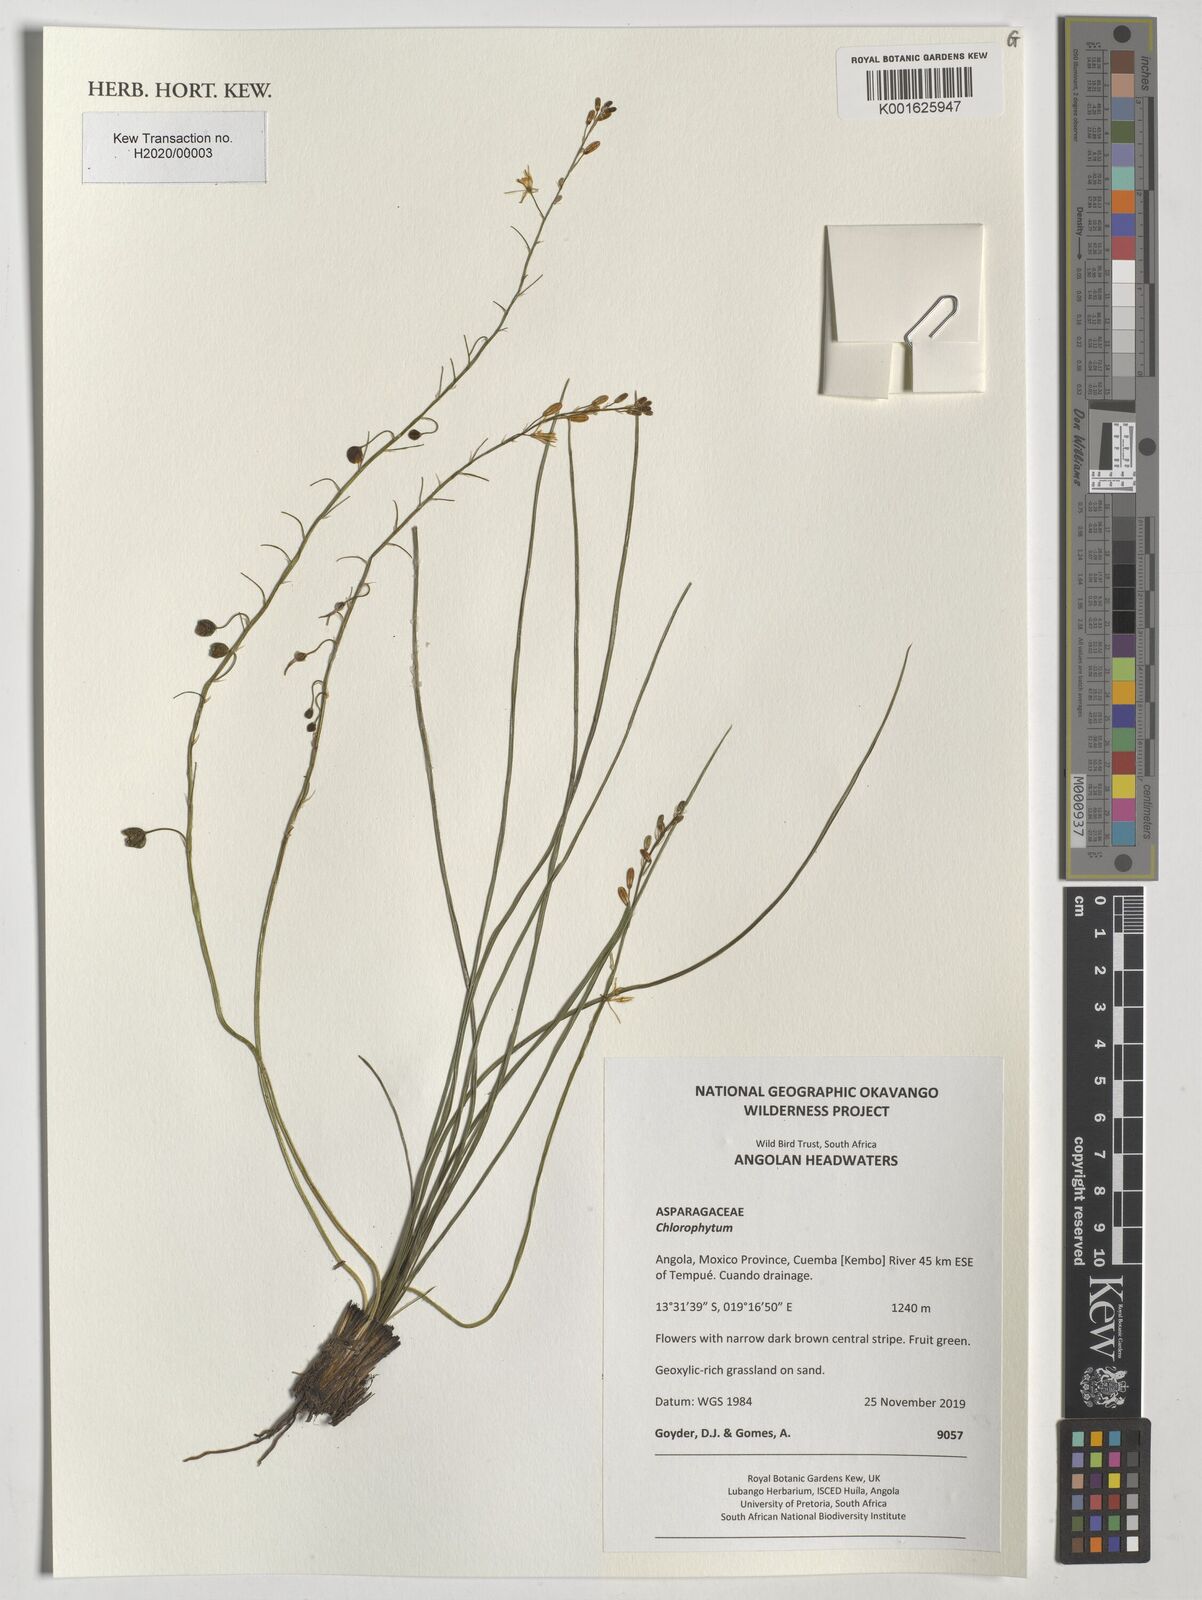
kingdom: Plantae
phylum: Tracheophyta
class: Liliopsida
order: Asparagales
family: Asparagaceae
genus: Chlorophytum
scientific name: Chlorophytum
